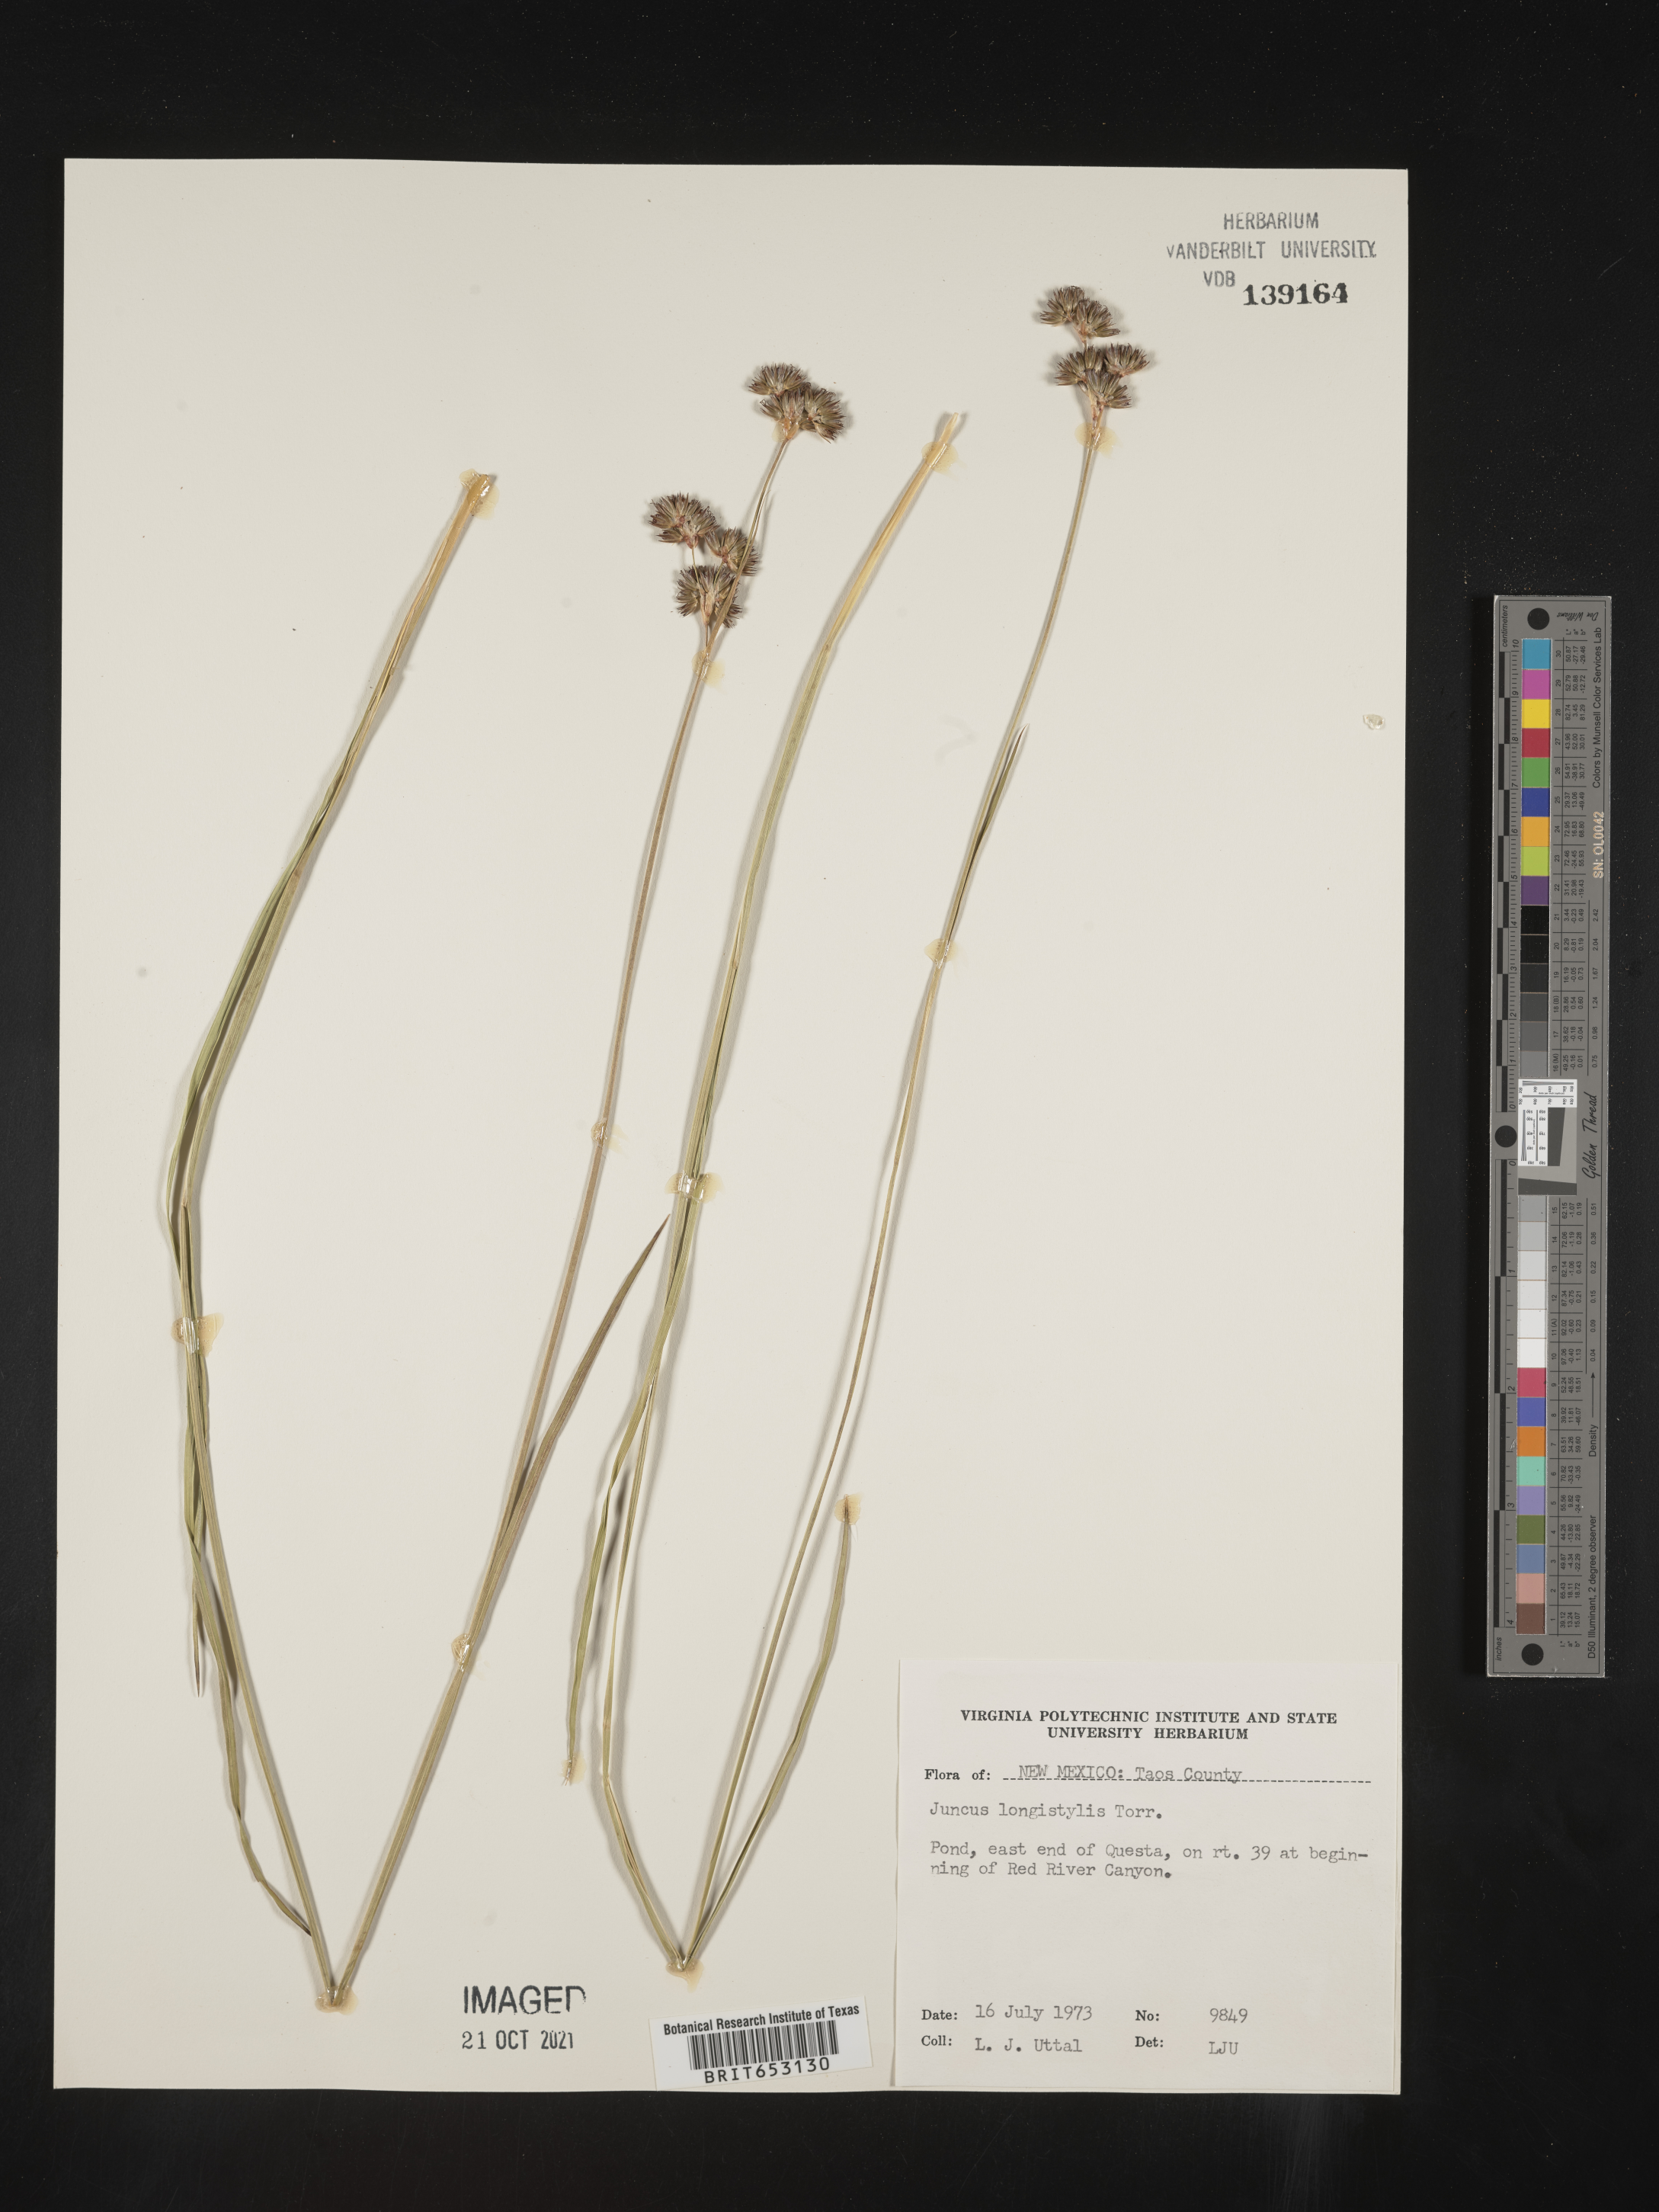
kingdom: Plantae
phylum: Tracheophyta
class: Liliopsida
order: Poales
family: Juncaceae
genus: Juncus
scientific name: Juncus longistylis
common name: Long-style rush
